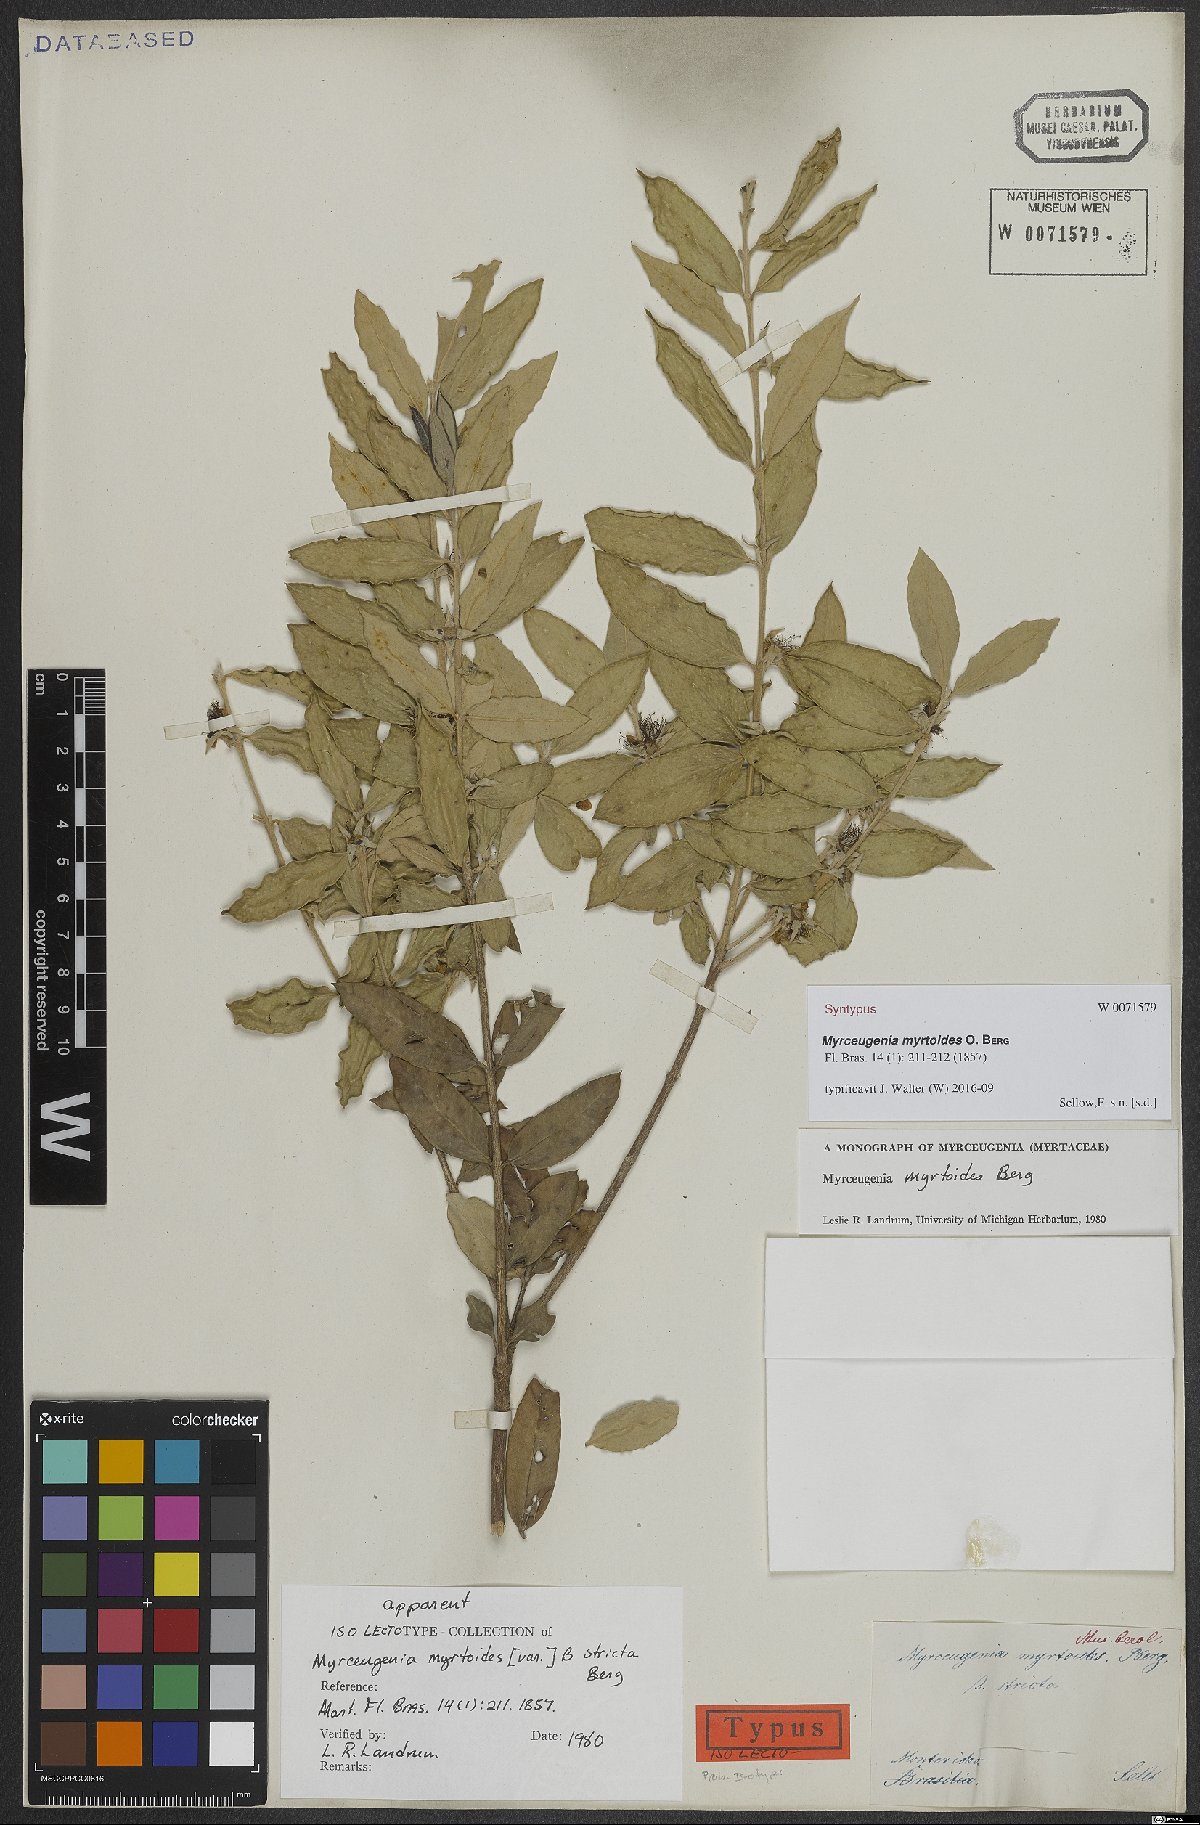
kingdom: Plantae
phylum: Tracheophyta
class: Magnoliopsida
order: Myrtales
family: Myrtaceae
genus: Myrceugenia
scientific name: Myrceugenia myrtoides
